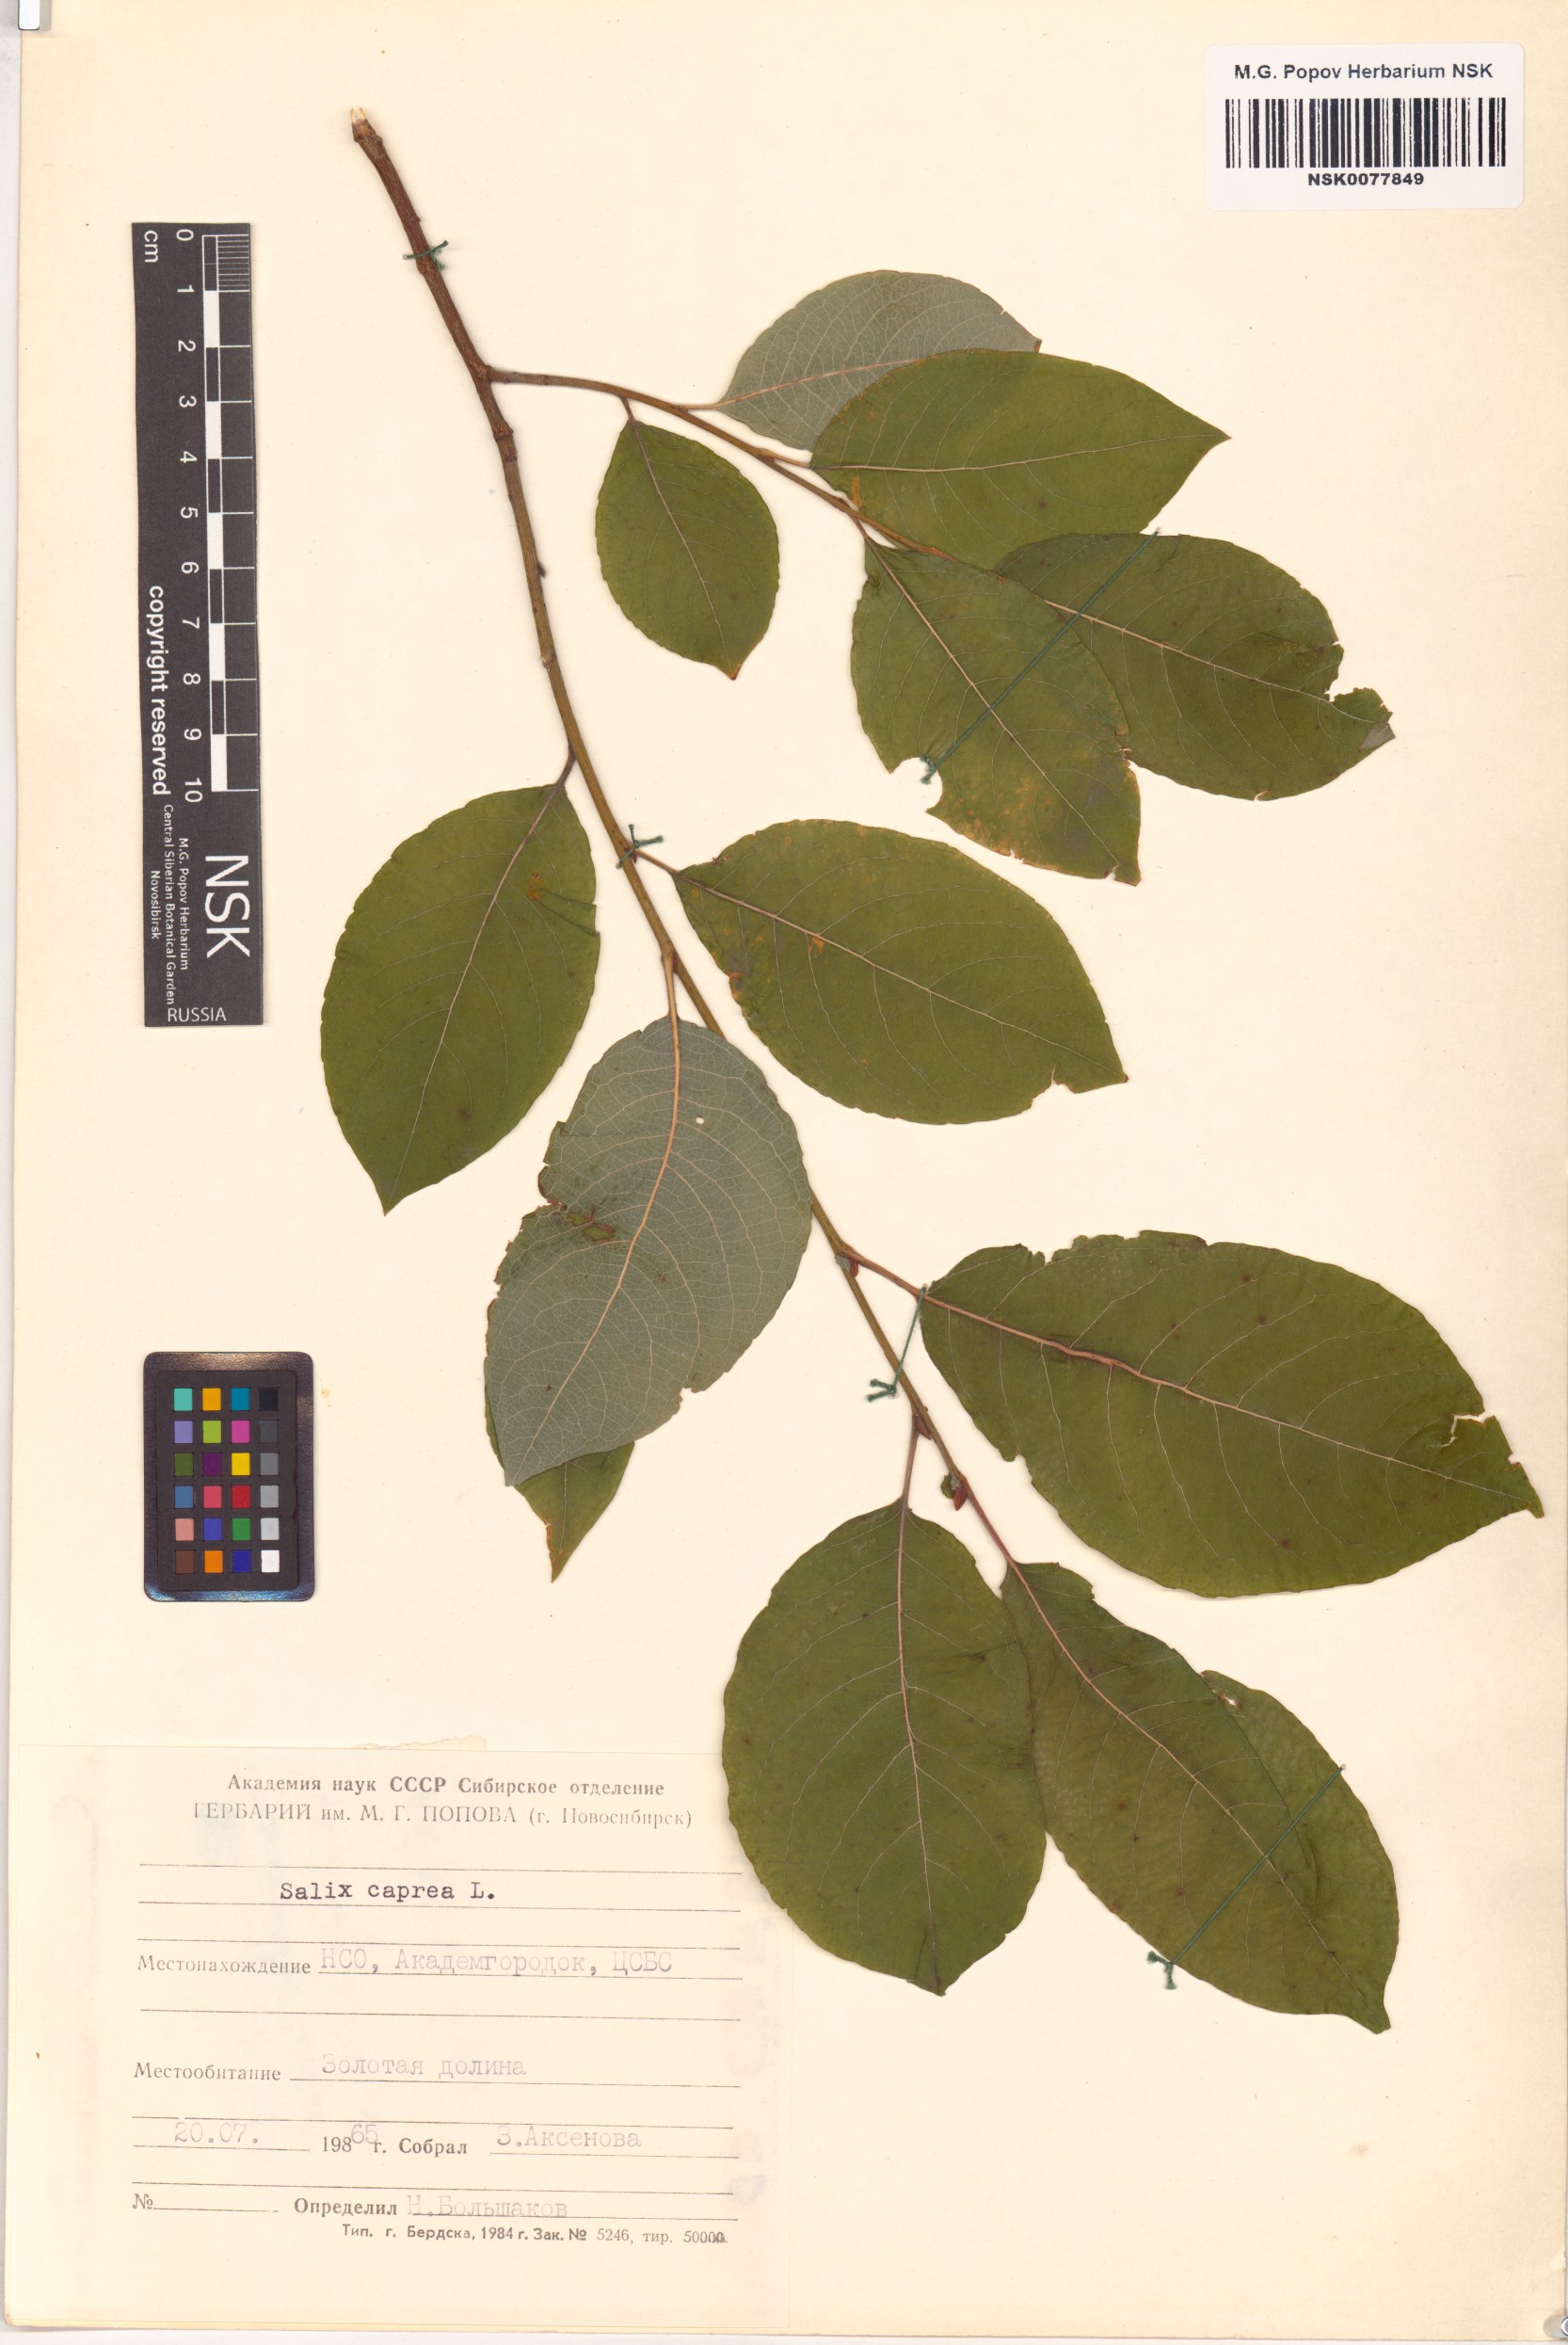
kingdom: Plantae
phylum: Tracheophyta
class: Magnoliopsida
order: Malpighiales
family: Salicaceae
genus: Salix
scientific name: Salix caprea
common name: Goat willow
